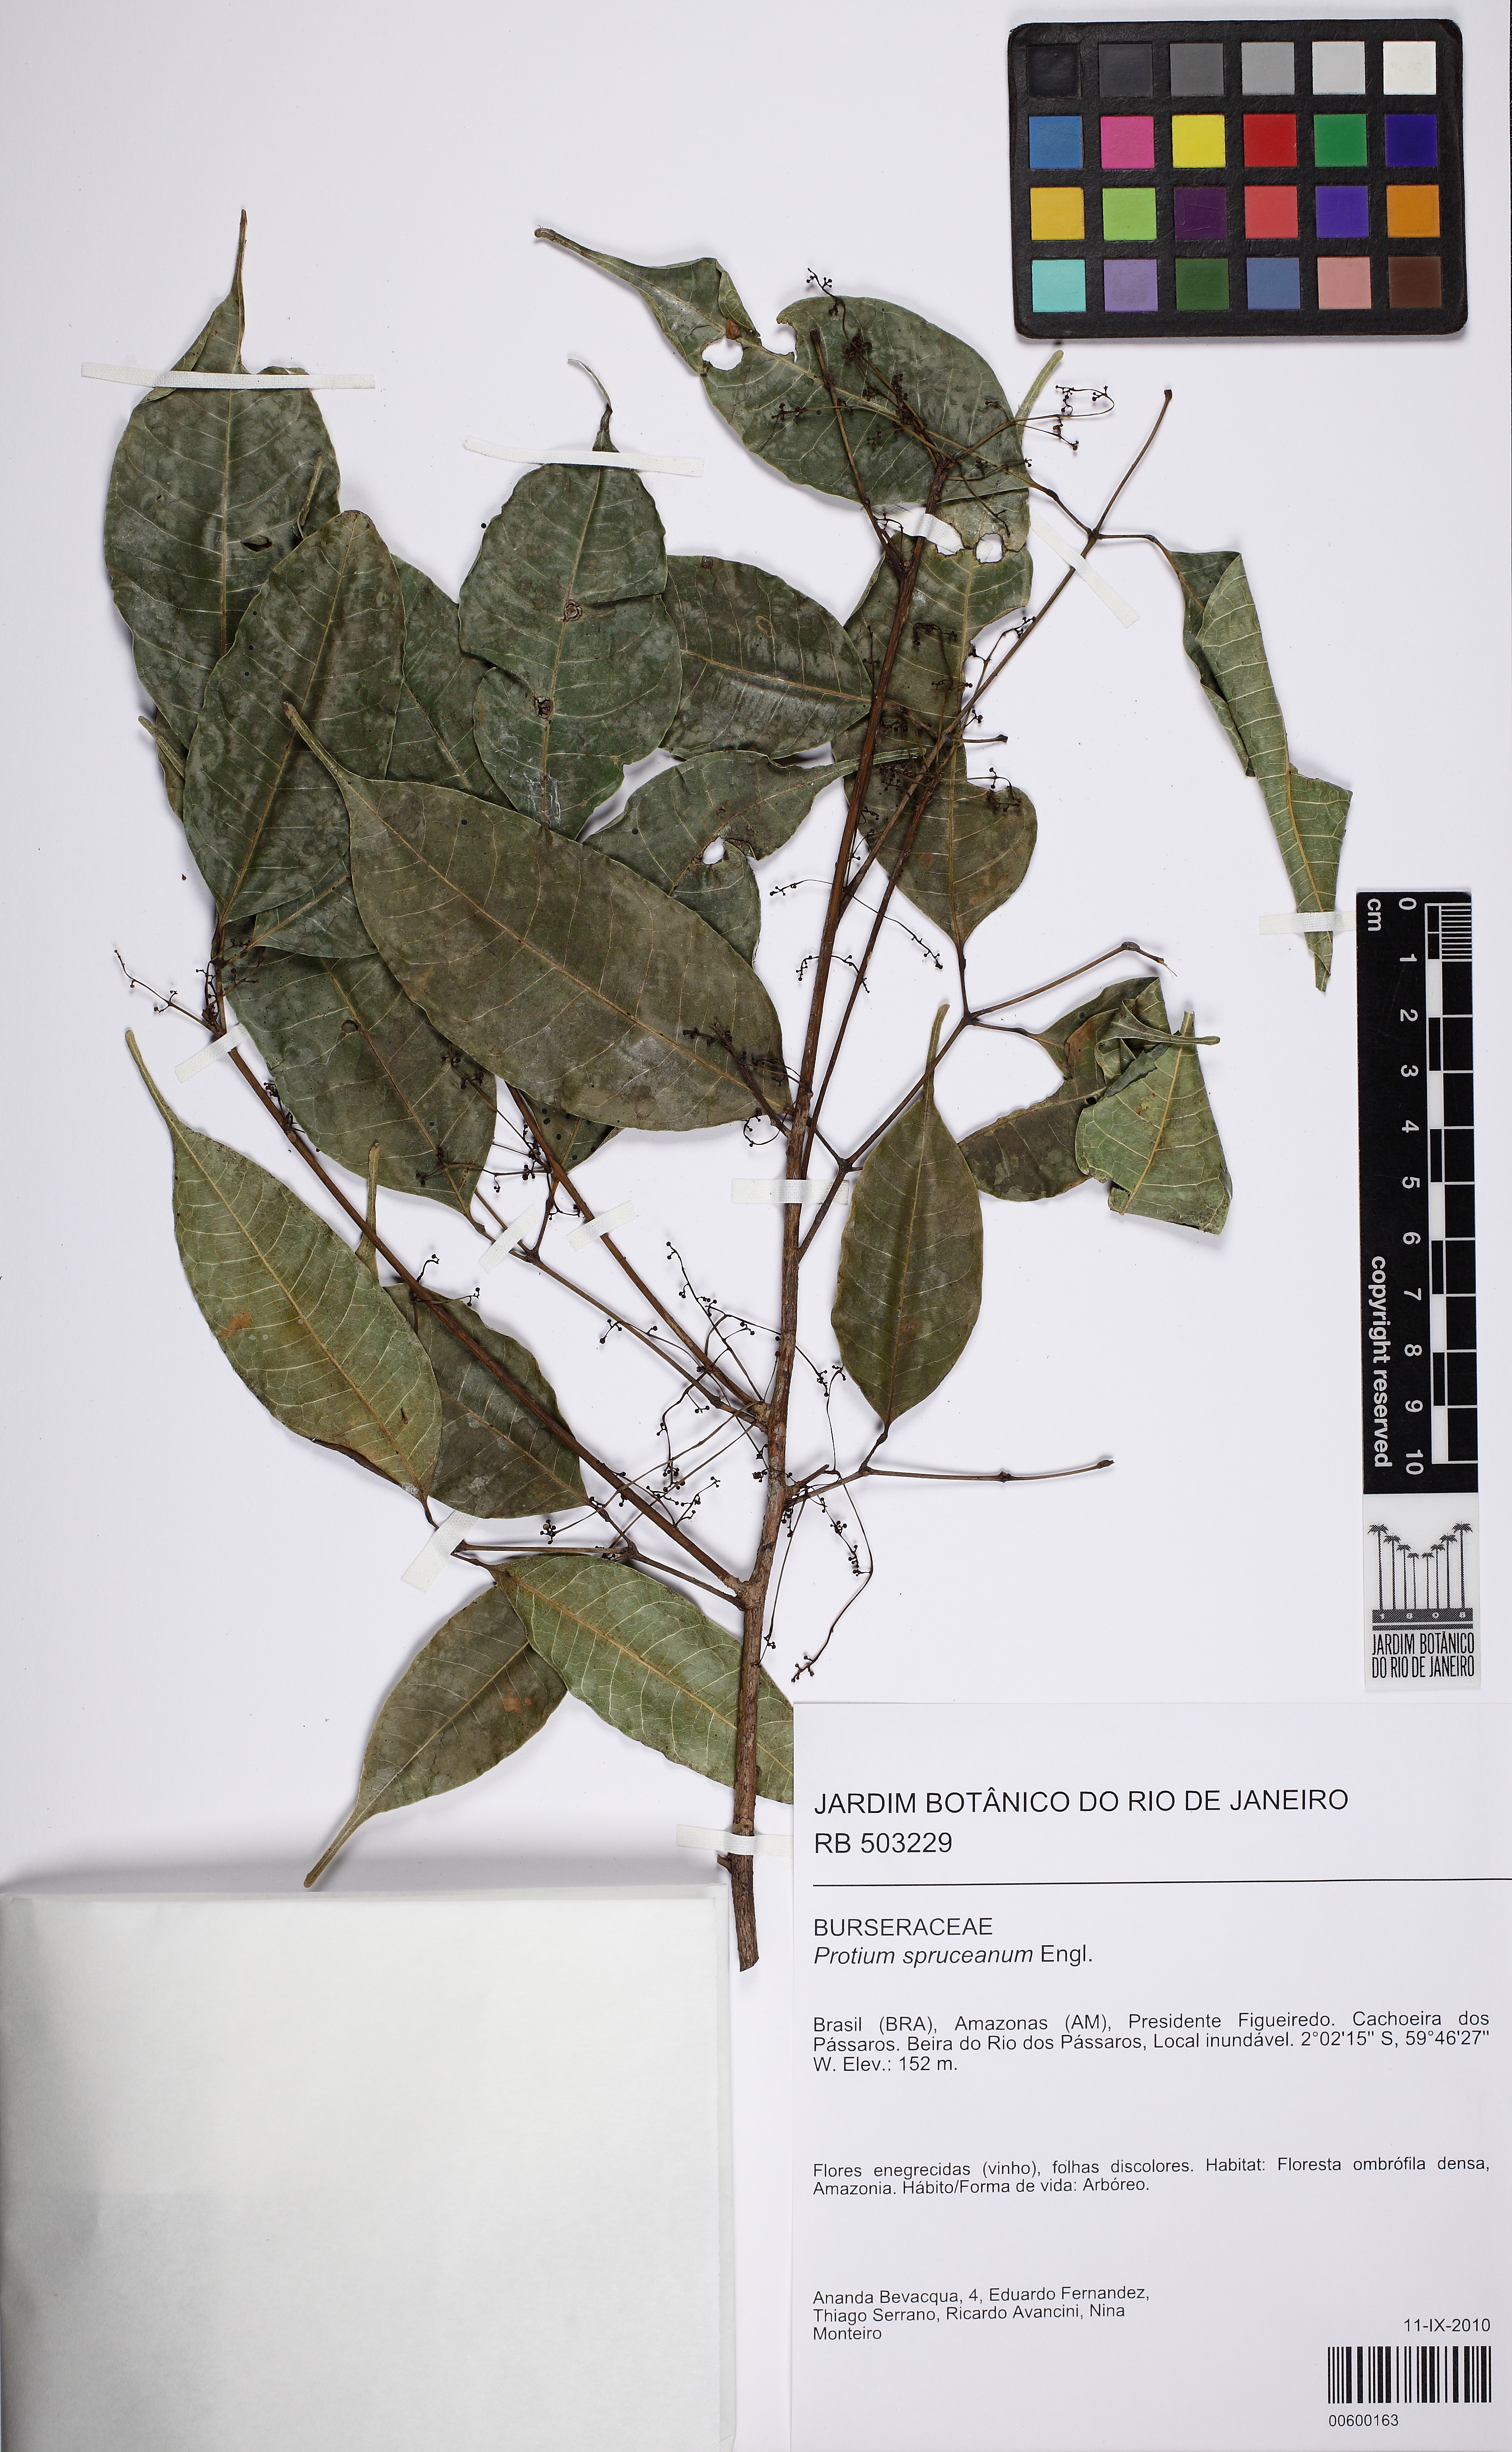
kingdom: Plantae
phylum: Tracheophyta
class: Magnoliopsida
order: Sapindales
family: Burseraceae
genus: Protium
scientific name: Protium spruceanum
